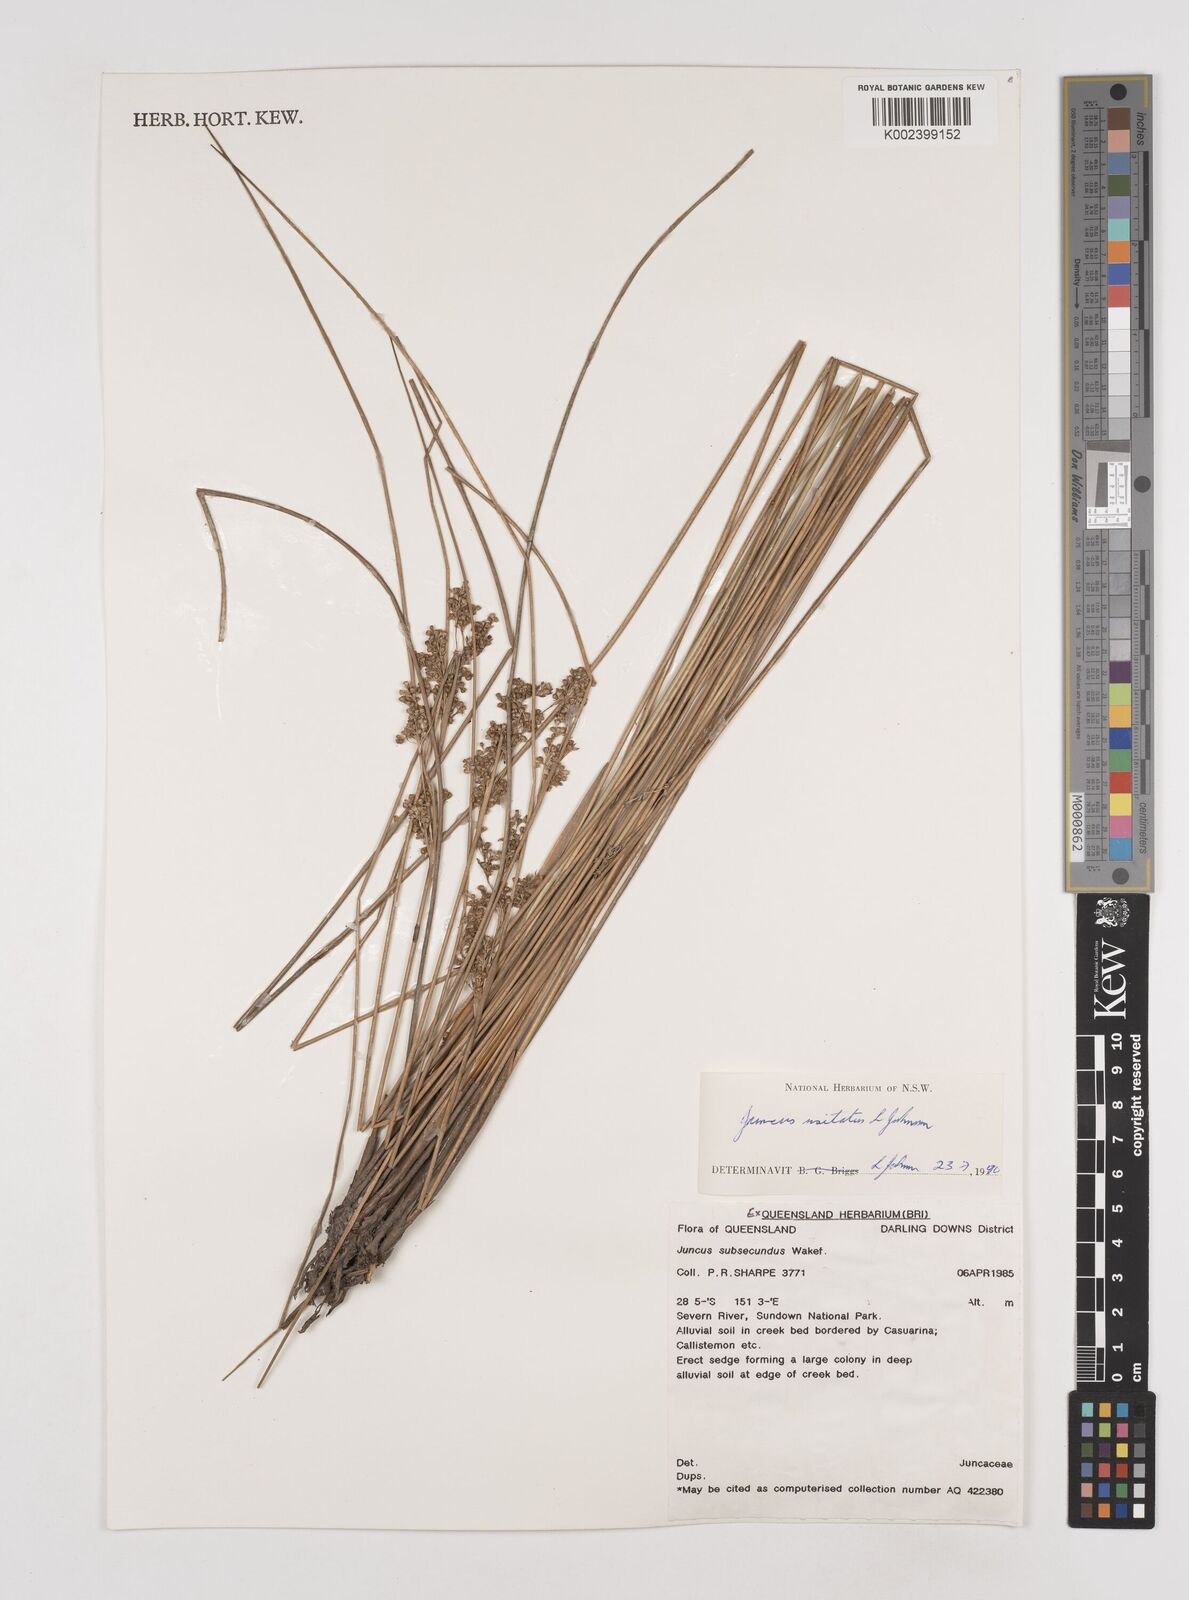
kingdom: Plantae
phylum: Tracheophyta
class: Liliopsida
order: Poales
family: Juncaceae
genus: Juncus
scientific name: Juncus usitatus
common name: Rush
